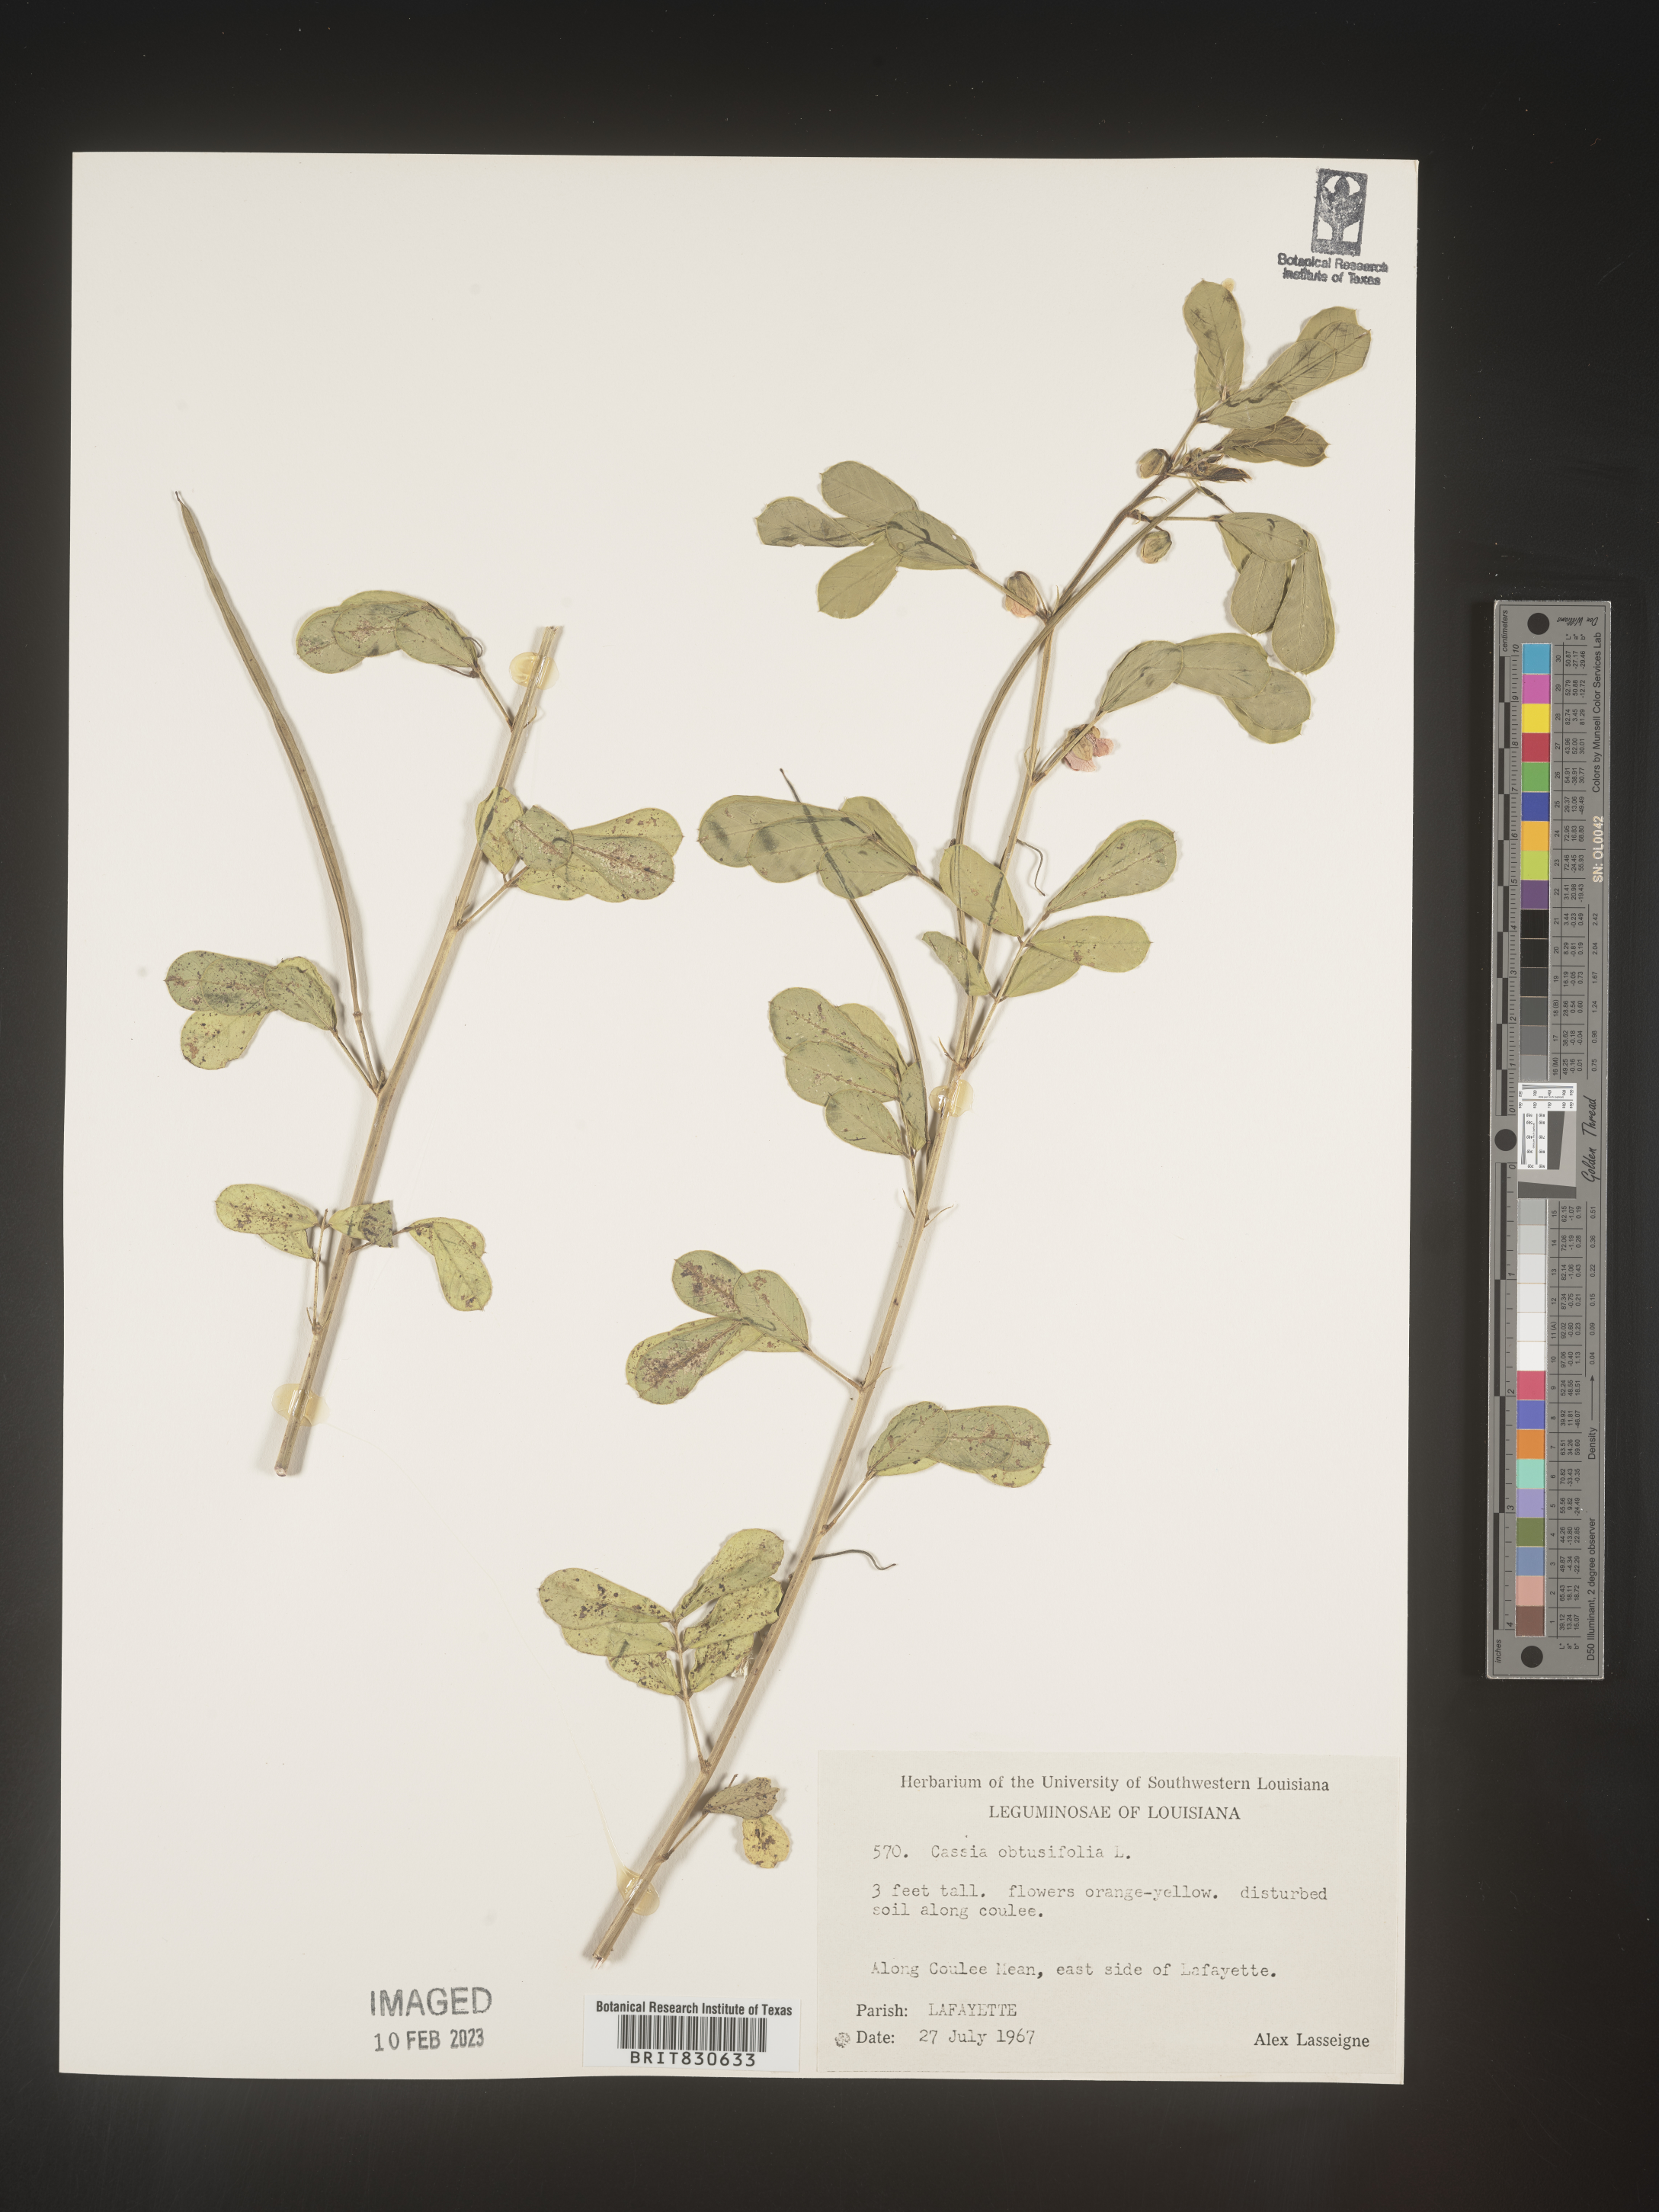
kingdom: Plantae
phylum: Tracheophyta
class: Magnoliopsida
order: Fabales
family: Fabaceae
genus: Senna
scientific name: Senna obtusifolia
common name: Java-bean
